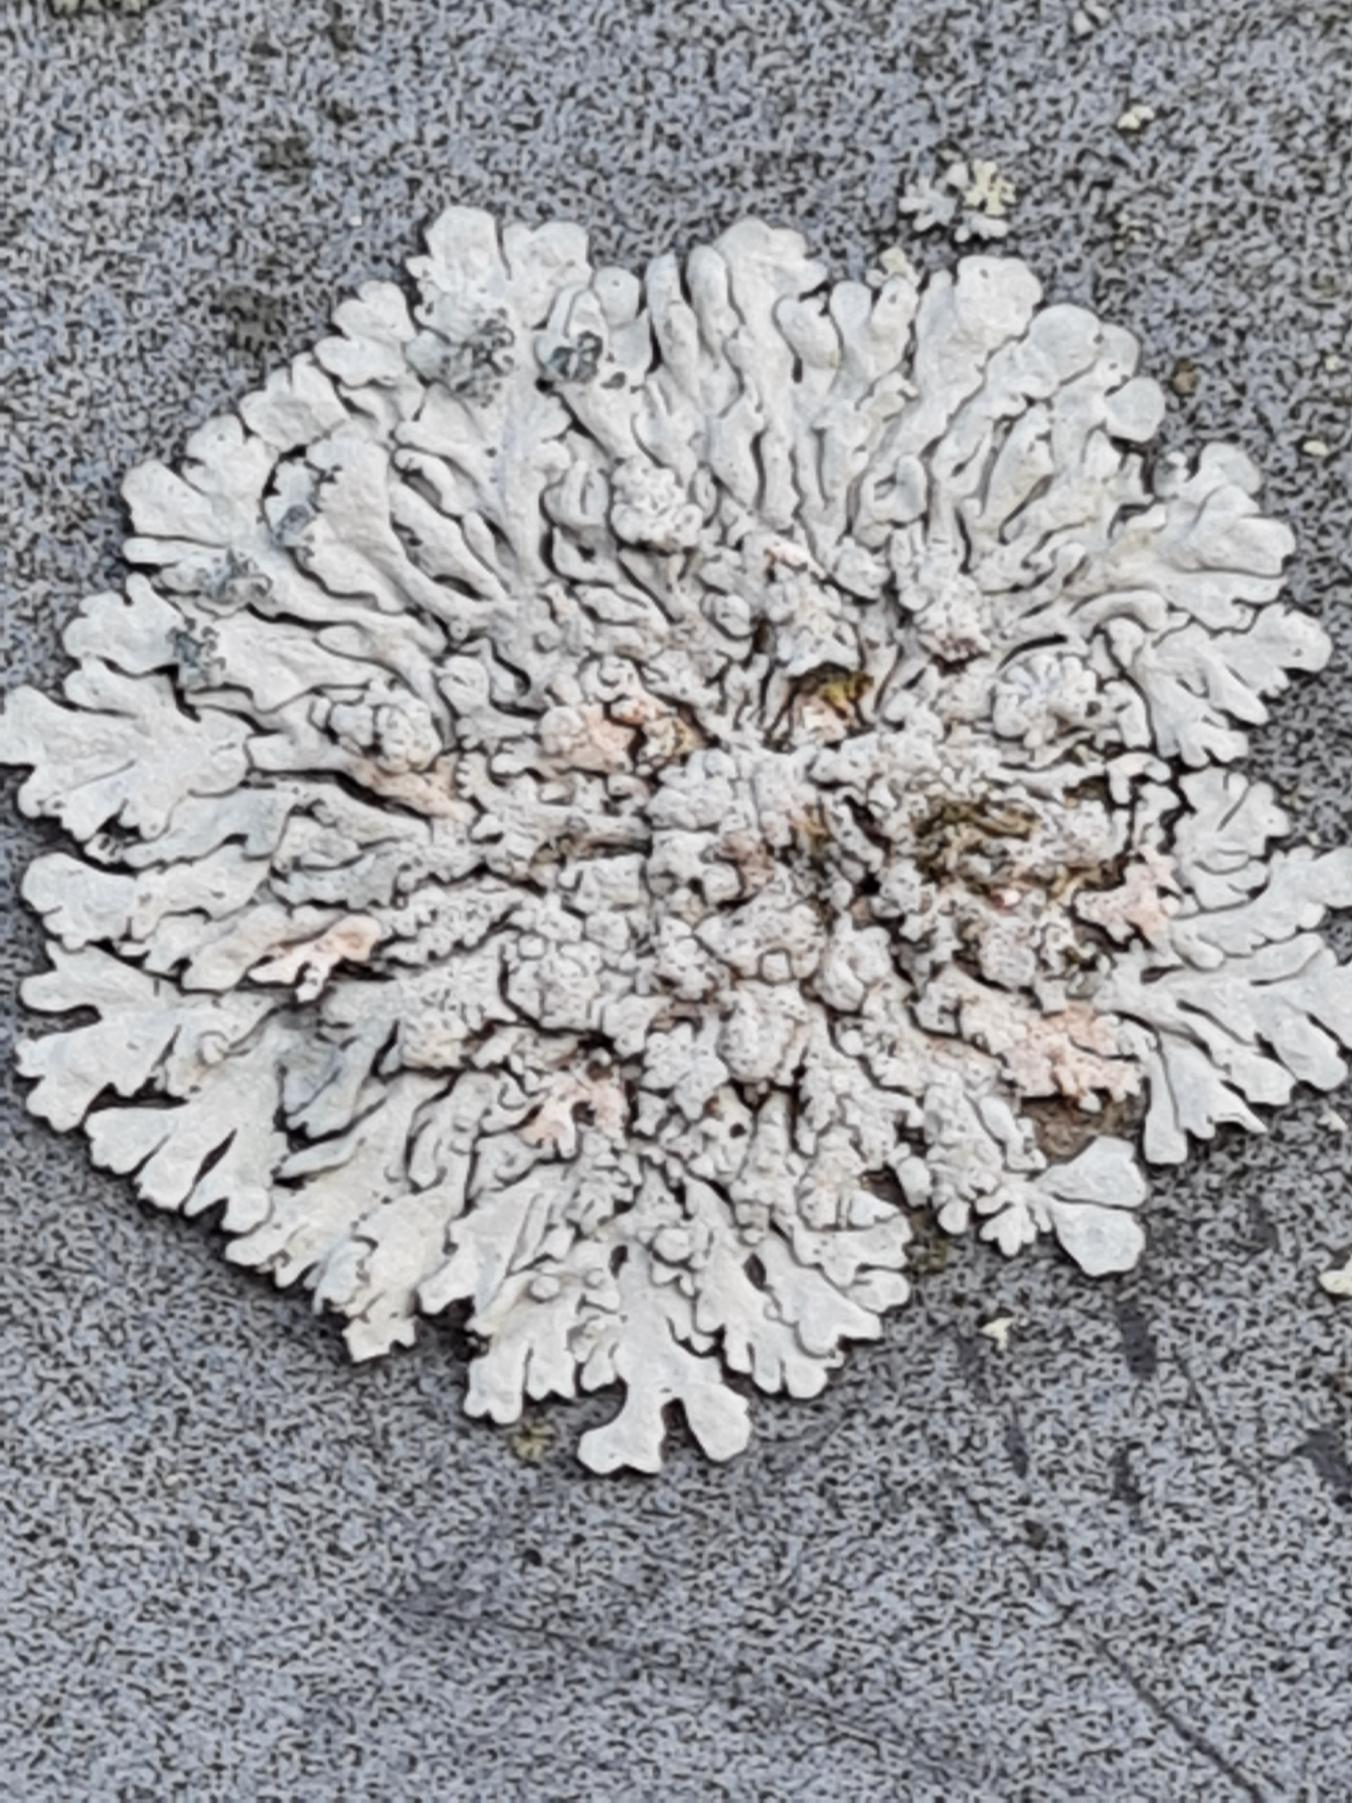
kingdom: Fungi
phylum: Ascomycota
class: Lecanoromycetes
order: Caliciales
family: Physciaceae
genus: Physcia
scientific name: Physcia caesia
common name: Blågrå rosetlav
